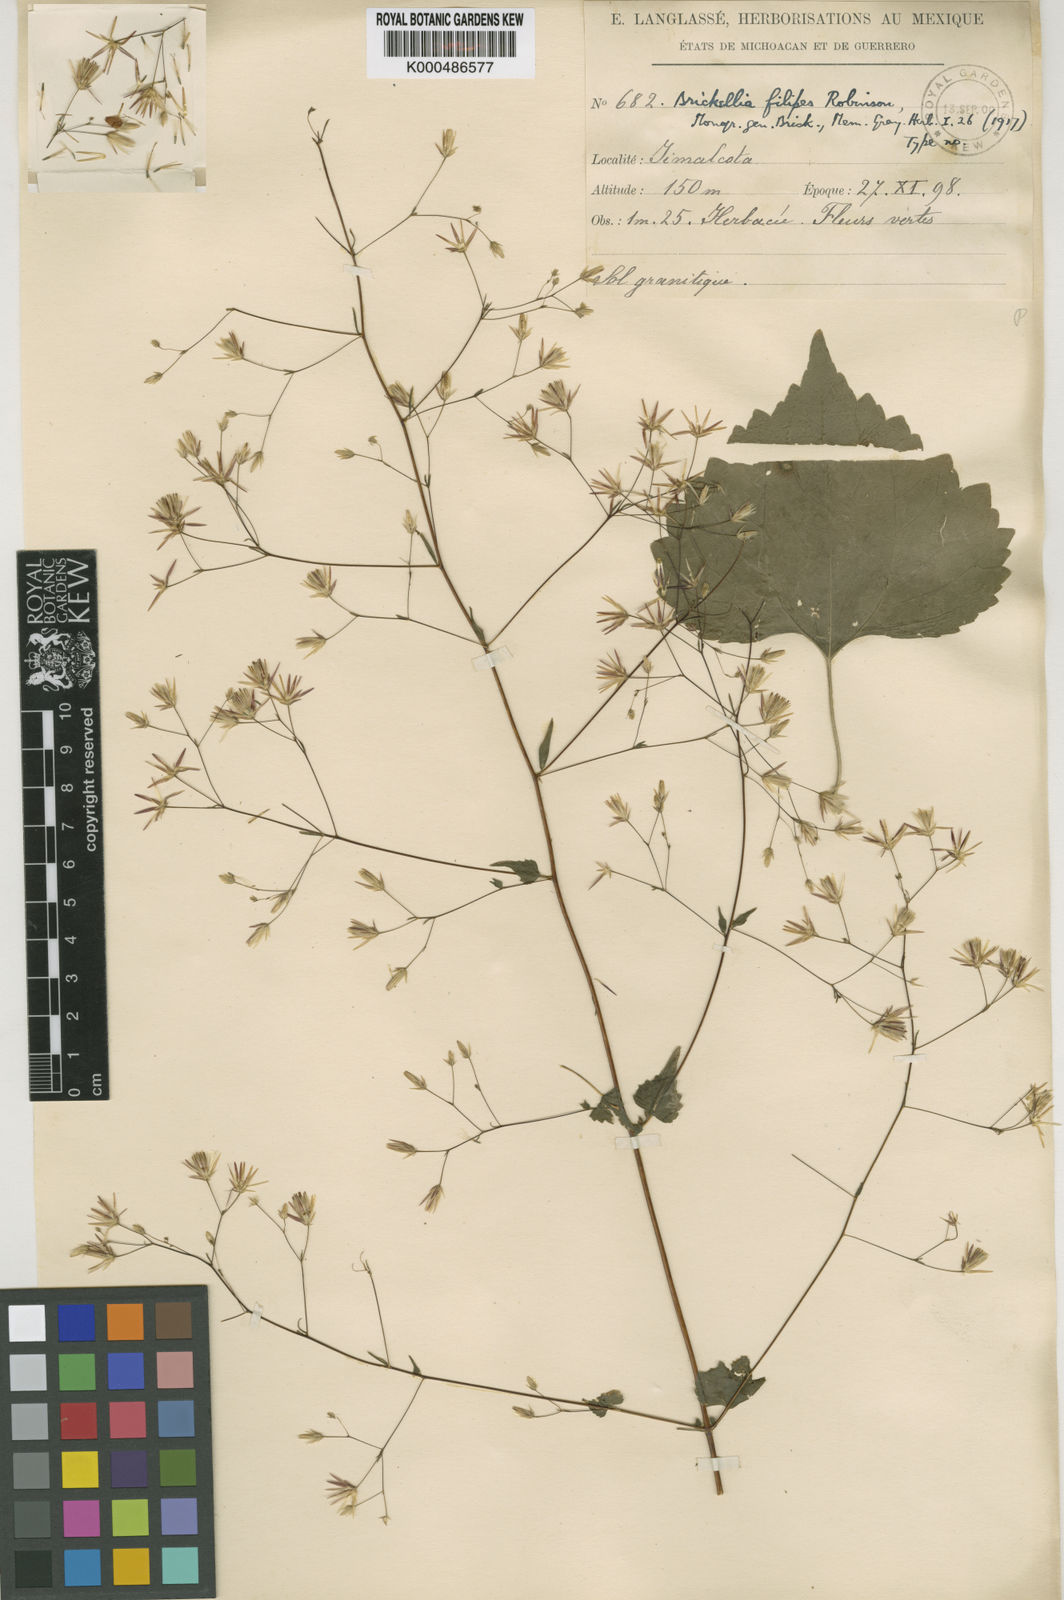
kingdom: Plantae
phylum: Tracheophyta
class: Magnoliopsida
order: Asterales
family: Asteraceae
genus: Brickellia
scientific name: Brickellia filipes
